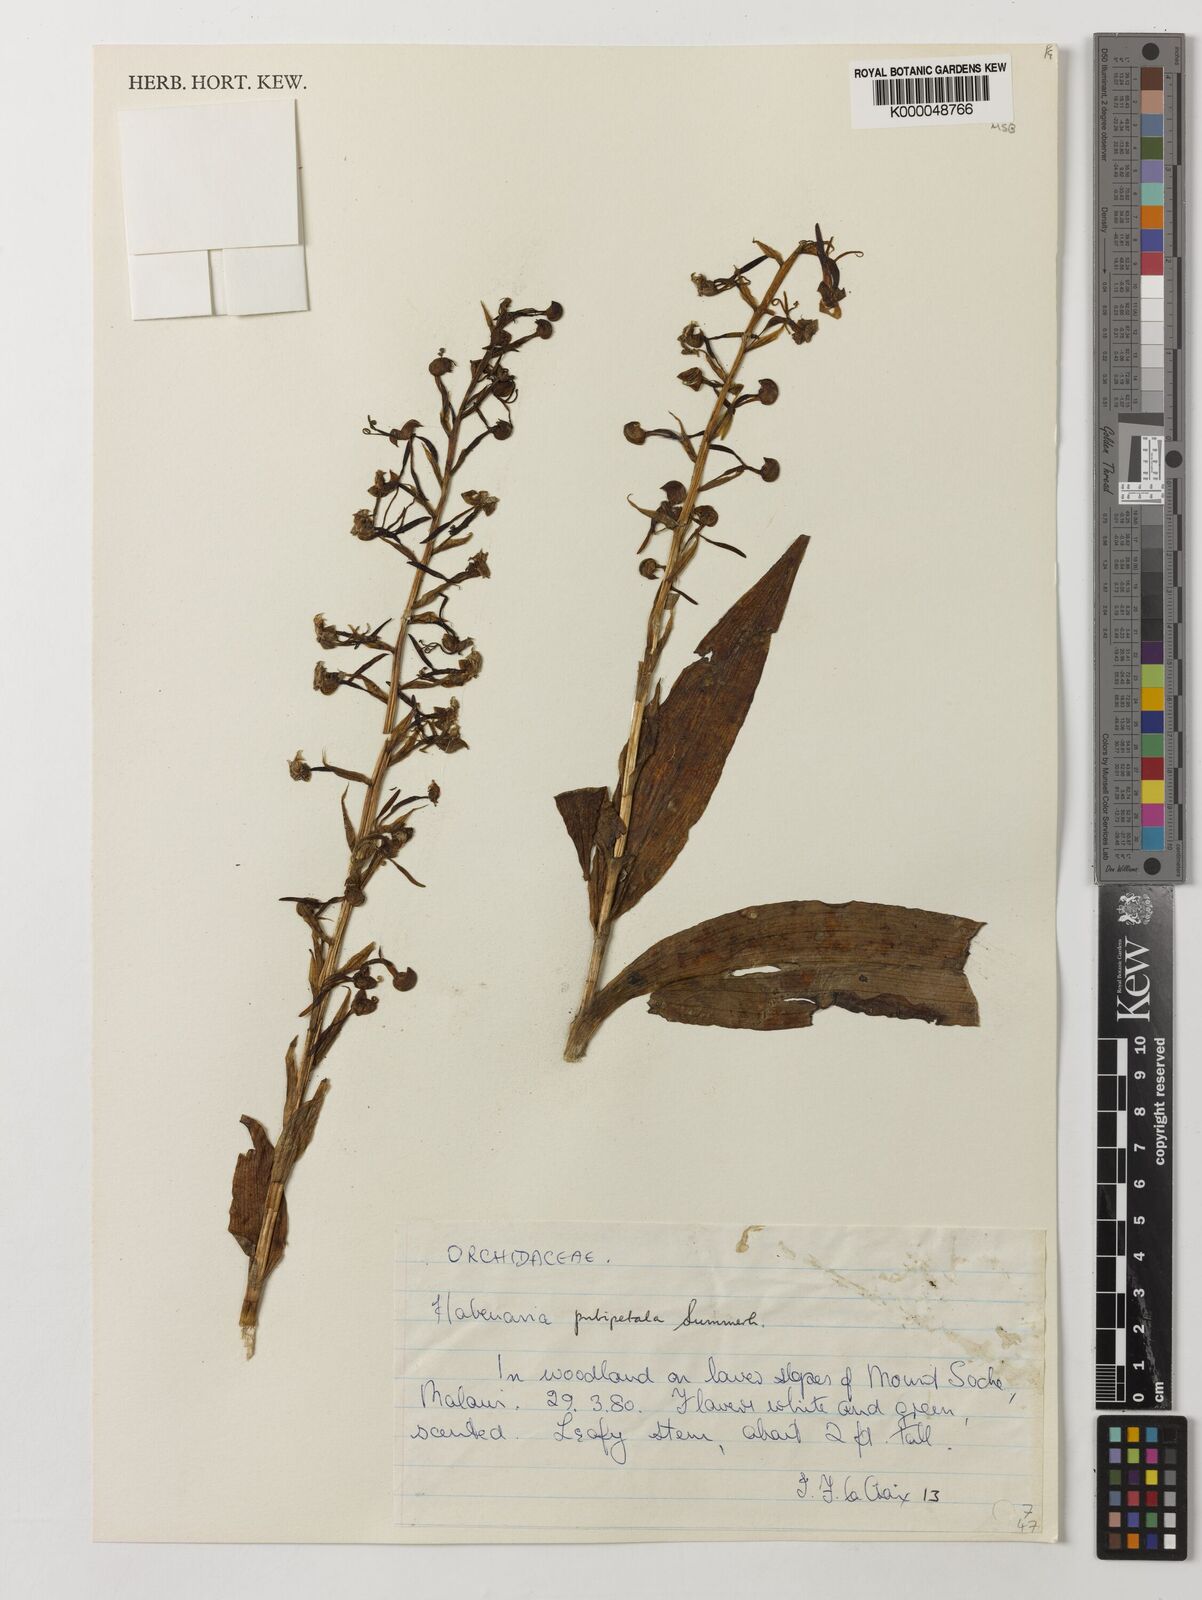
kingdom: Plantae
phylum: Tracheophyta
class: Liliopsida
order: Asparagales
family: Orchidaceae
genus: Habenaria
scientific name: Habenaria pubipetala
